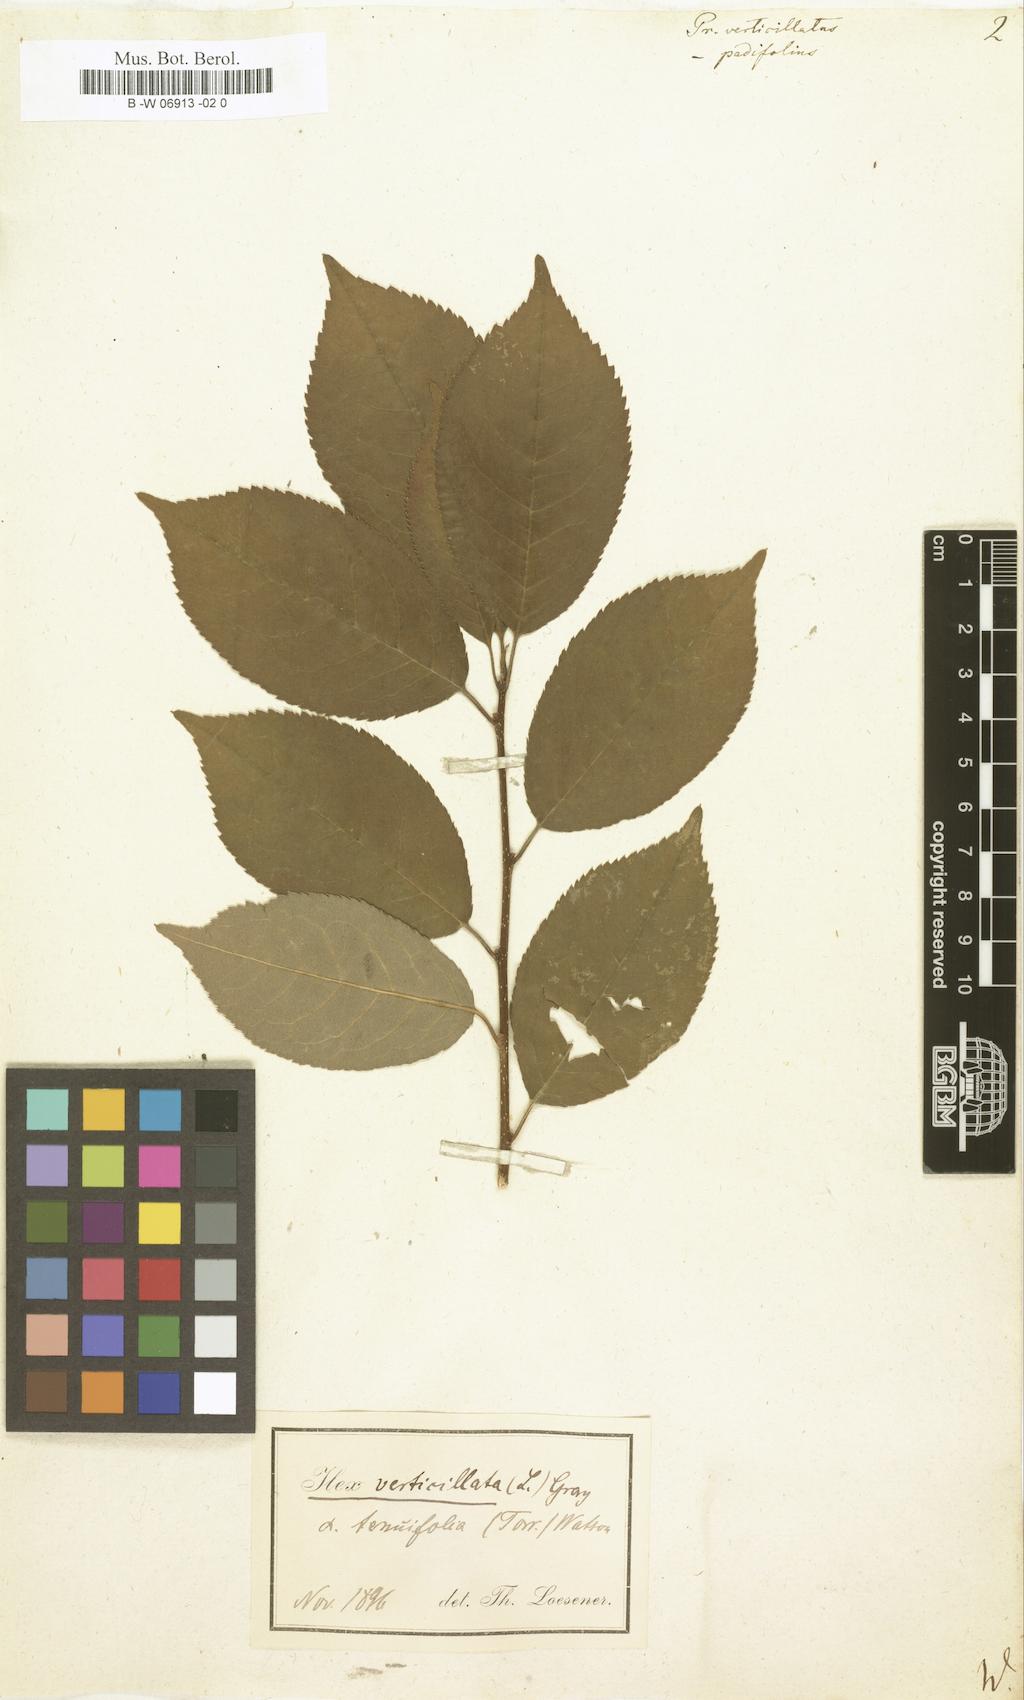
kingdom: Plantae
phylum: Tracheophyta
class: Magnoliopsida
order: Aquifoliales
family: Aquifoliaceae
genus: Ilex
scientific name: Ilex verticillata
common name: Virginia winterberry
